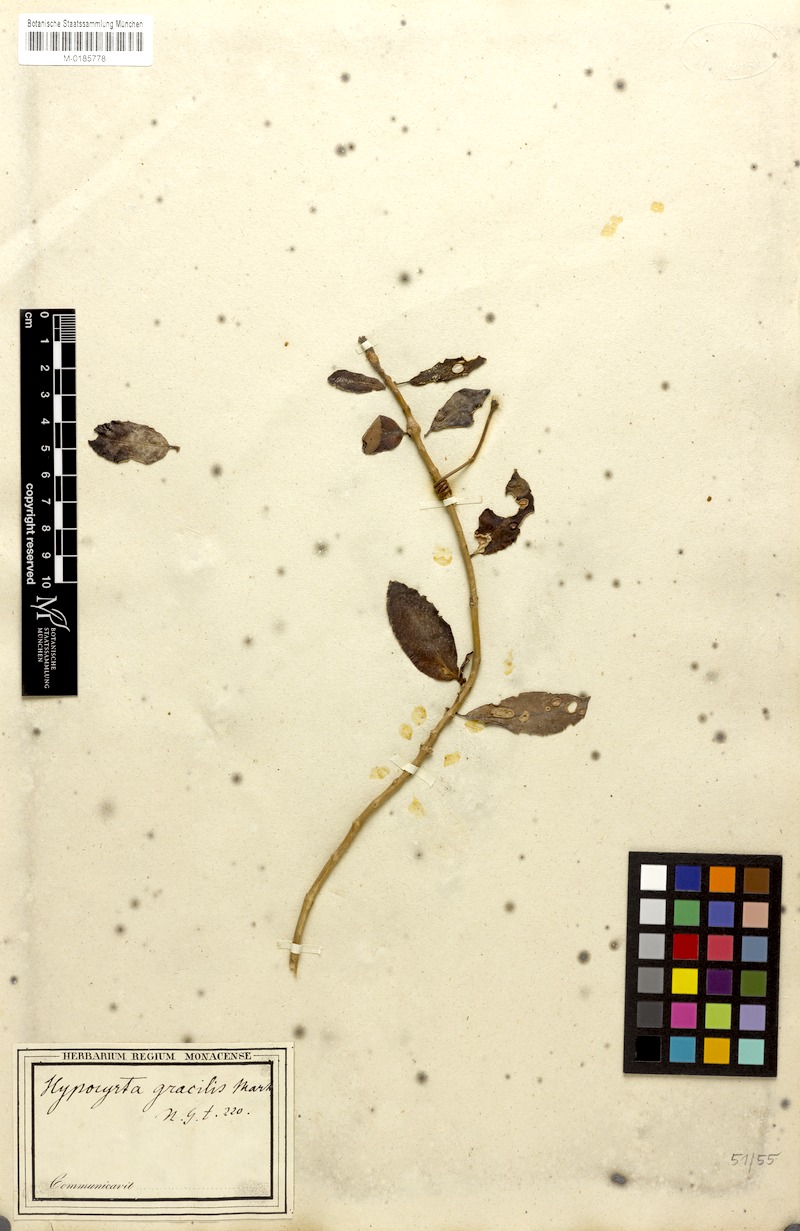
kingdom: Plantae
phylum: Tracheophyta
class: Magnoliopsida
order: Lamiales
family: Gesneriaceae
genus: Codonanthe
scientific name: Codonanthe gracilis
